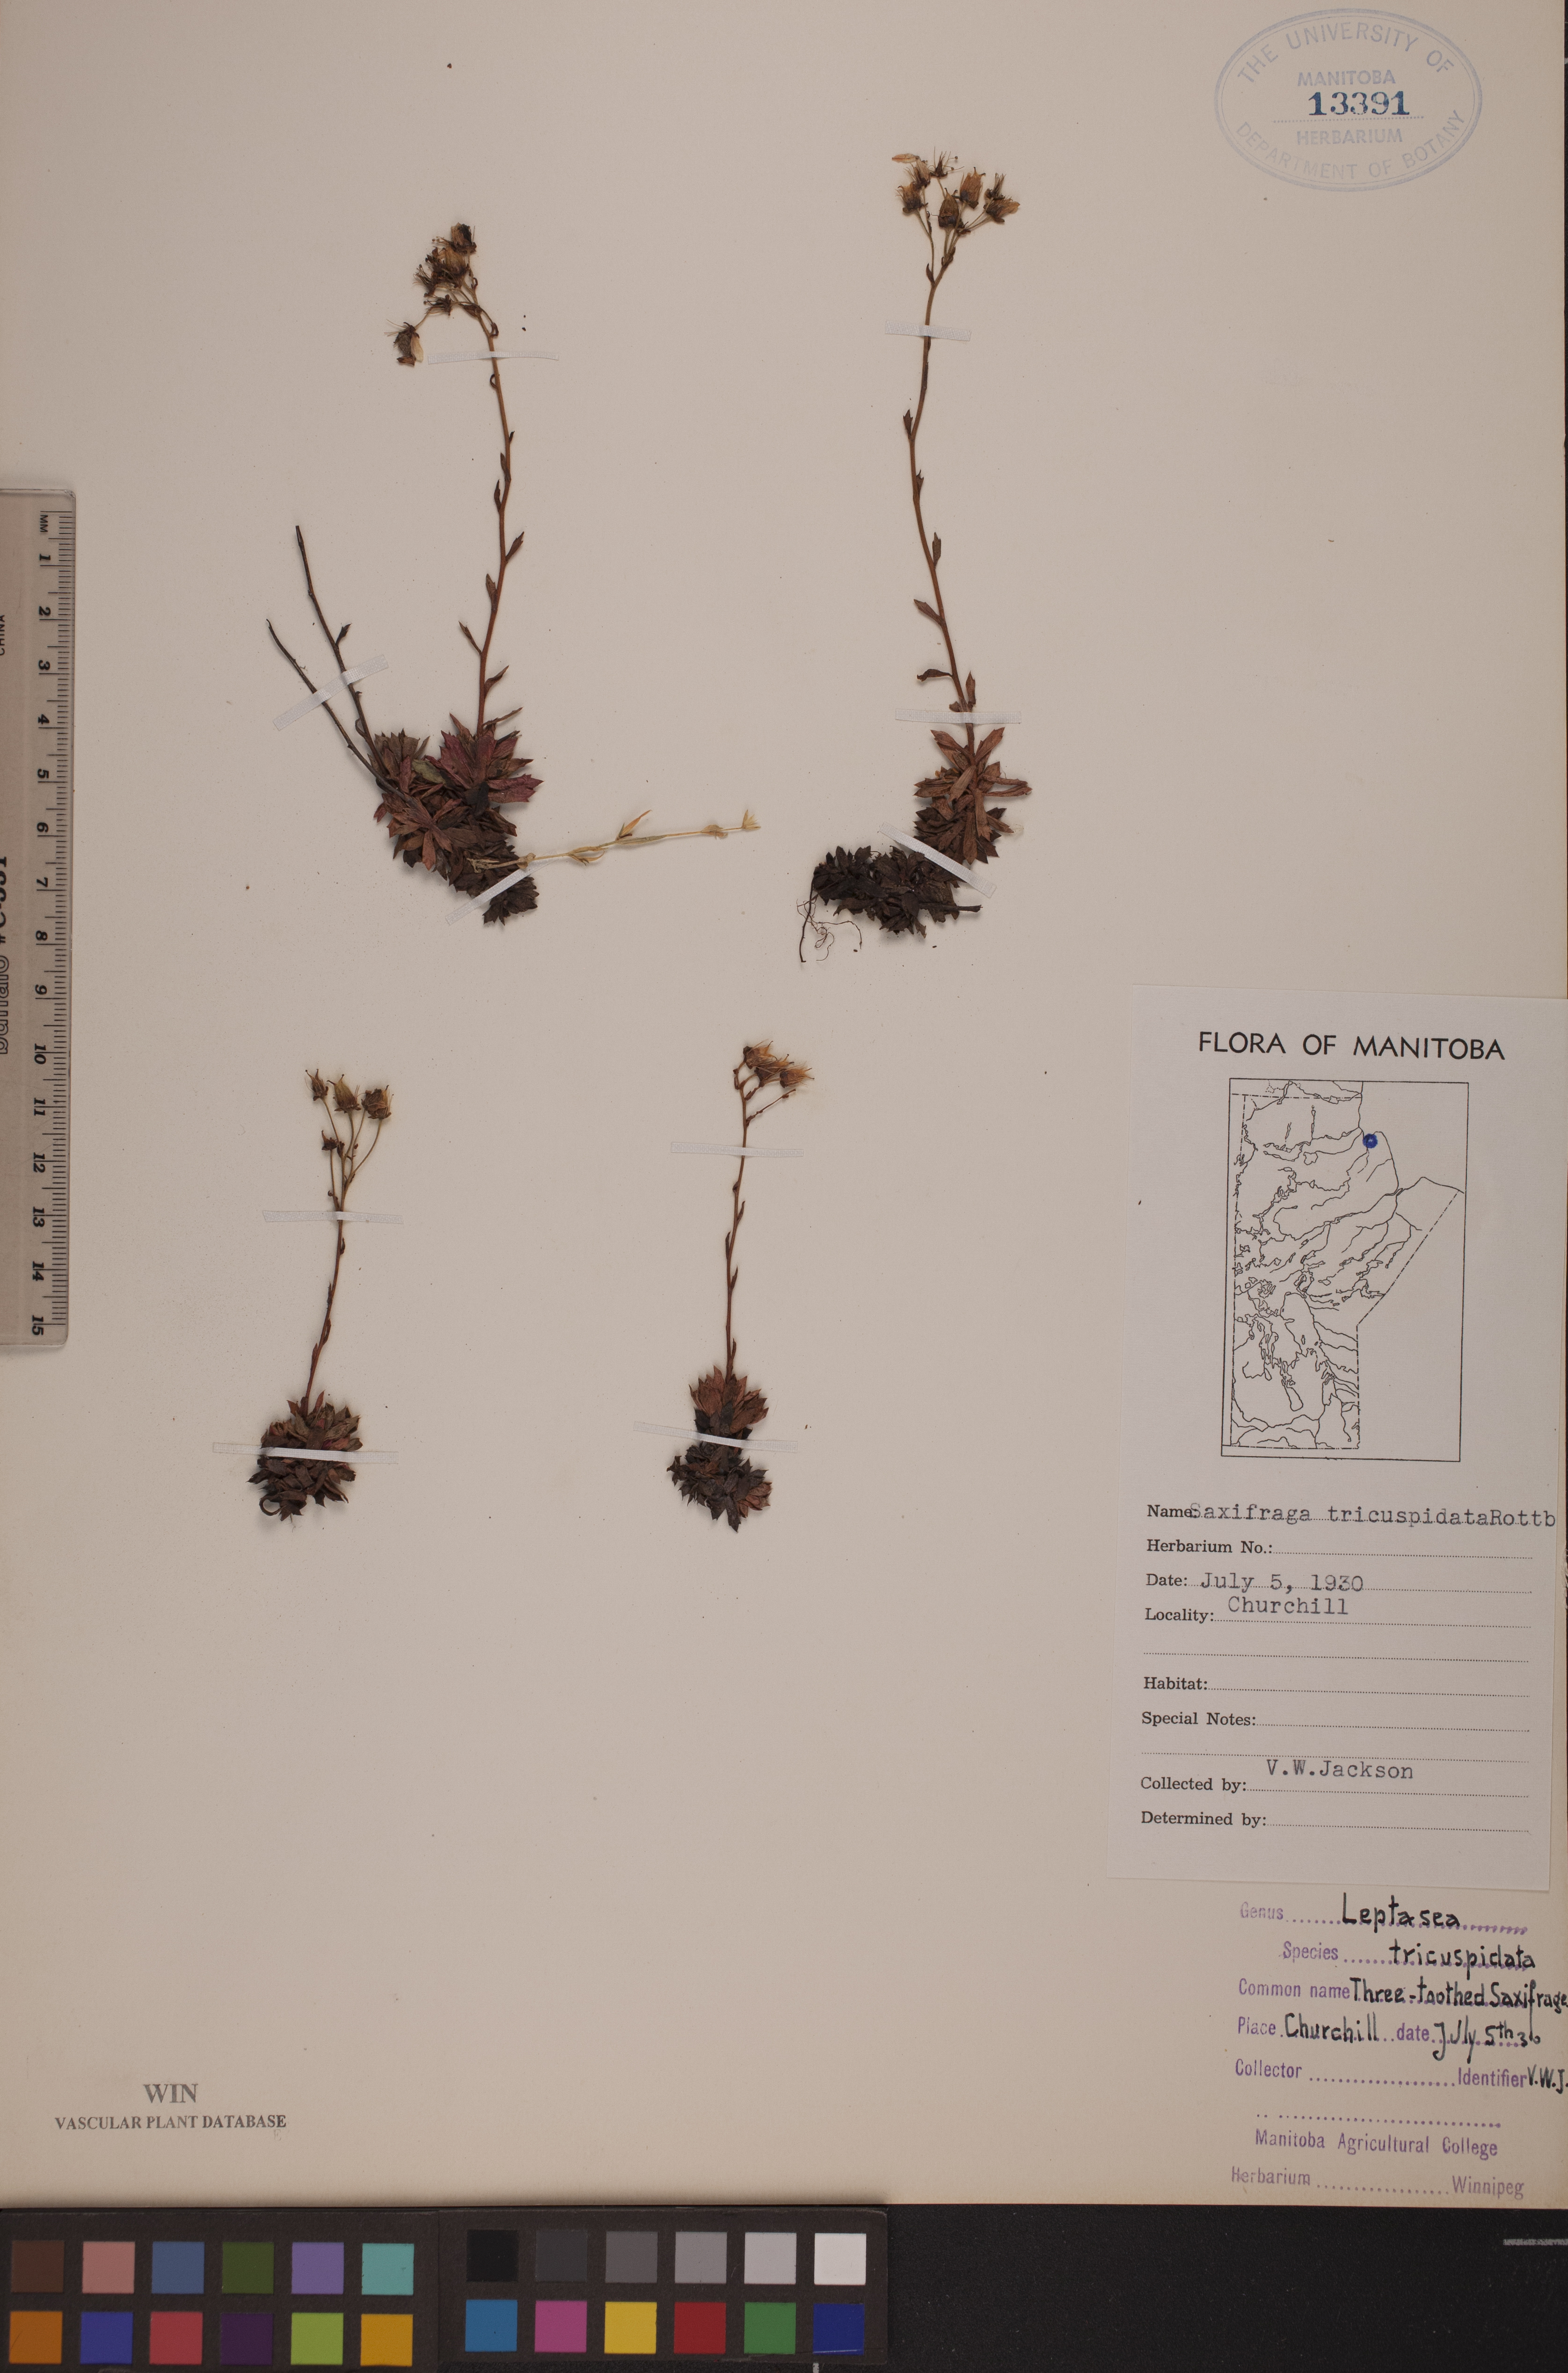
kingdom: Plantae
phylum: Tracheophyta
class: Magnoliopsida
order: Saxifragales
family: Saxifragaceae
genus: Saxifraga
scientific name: Saxifraga tricuspidata
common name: Prickly saxifrage
